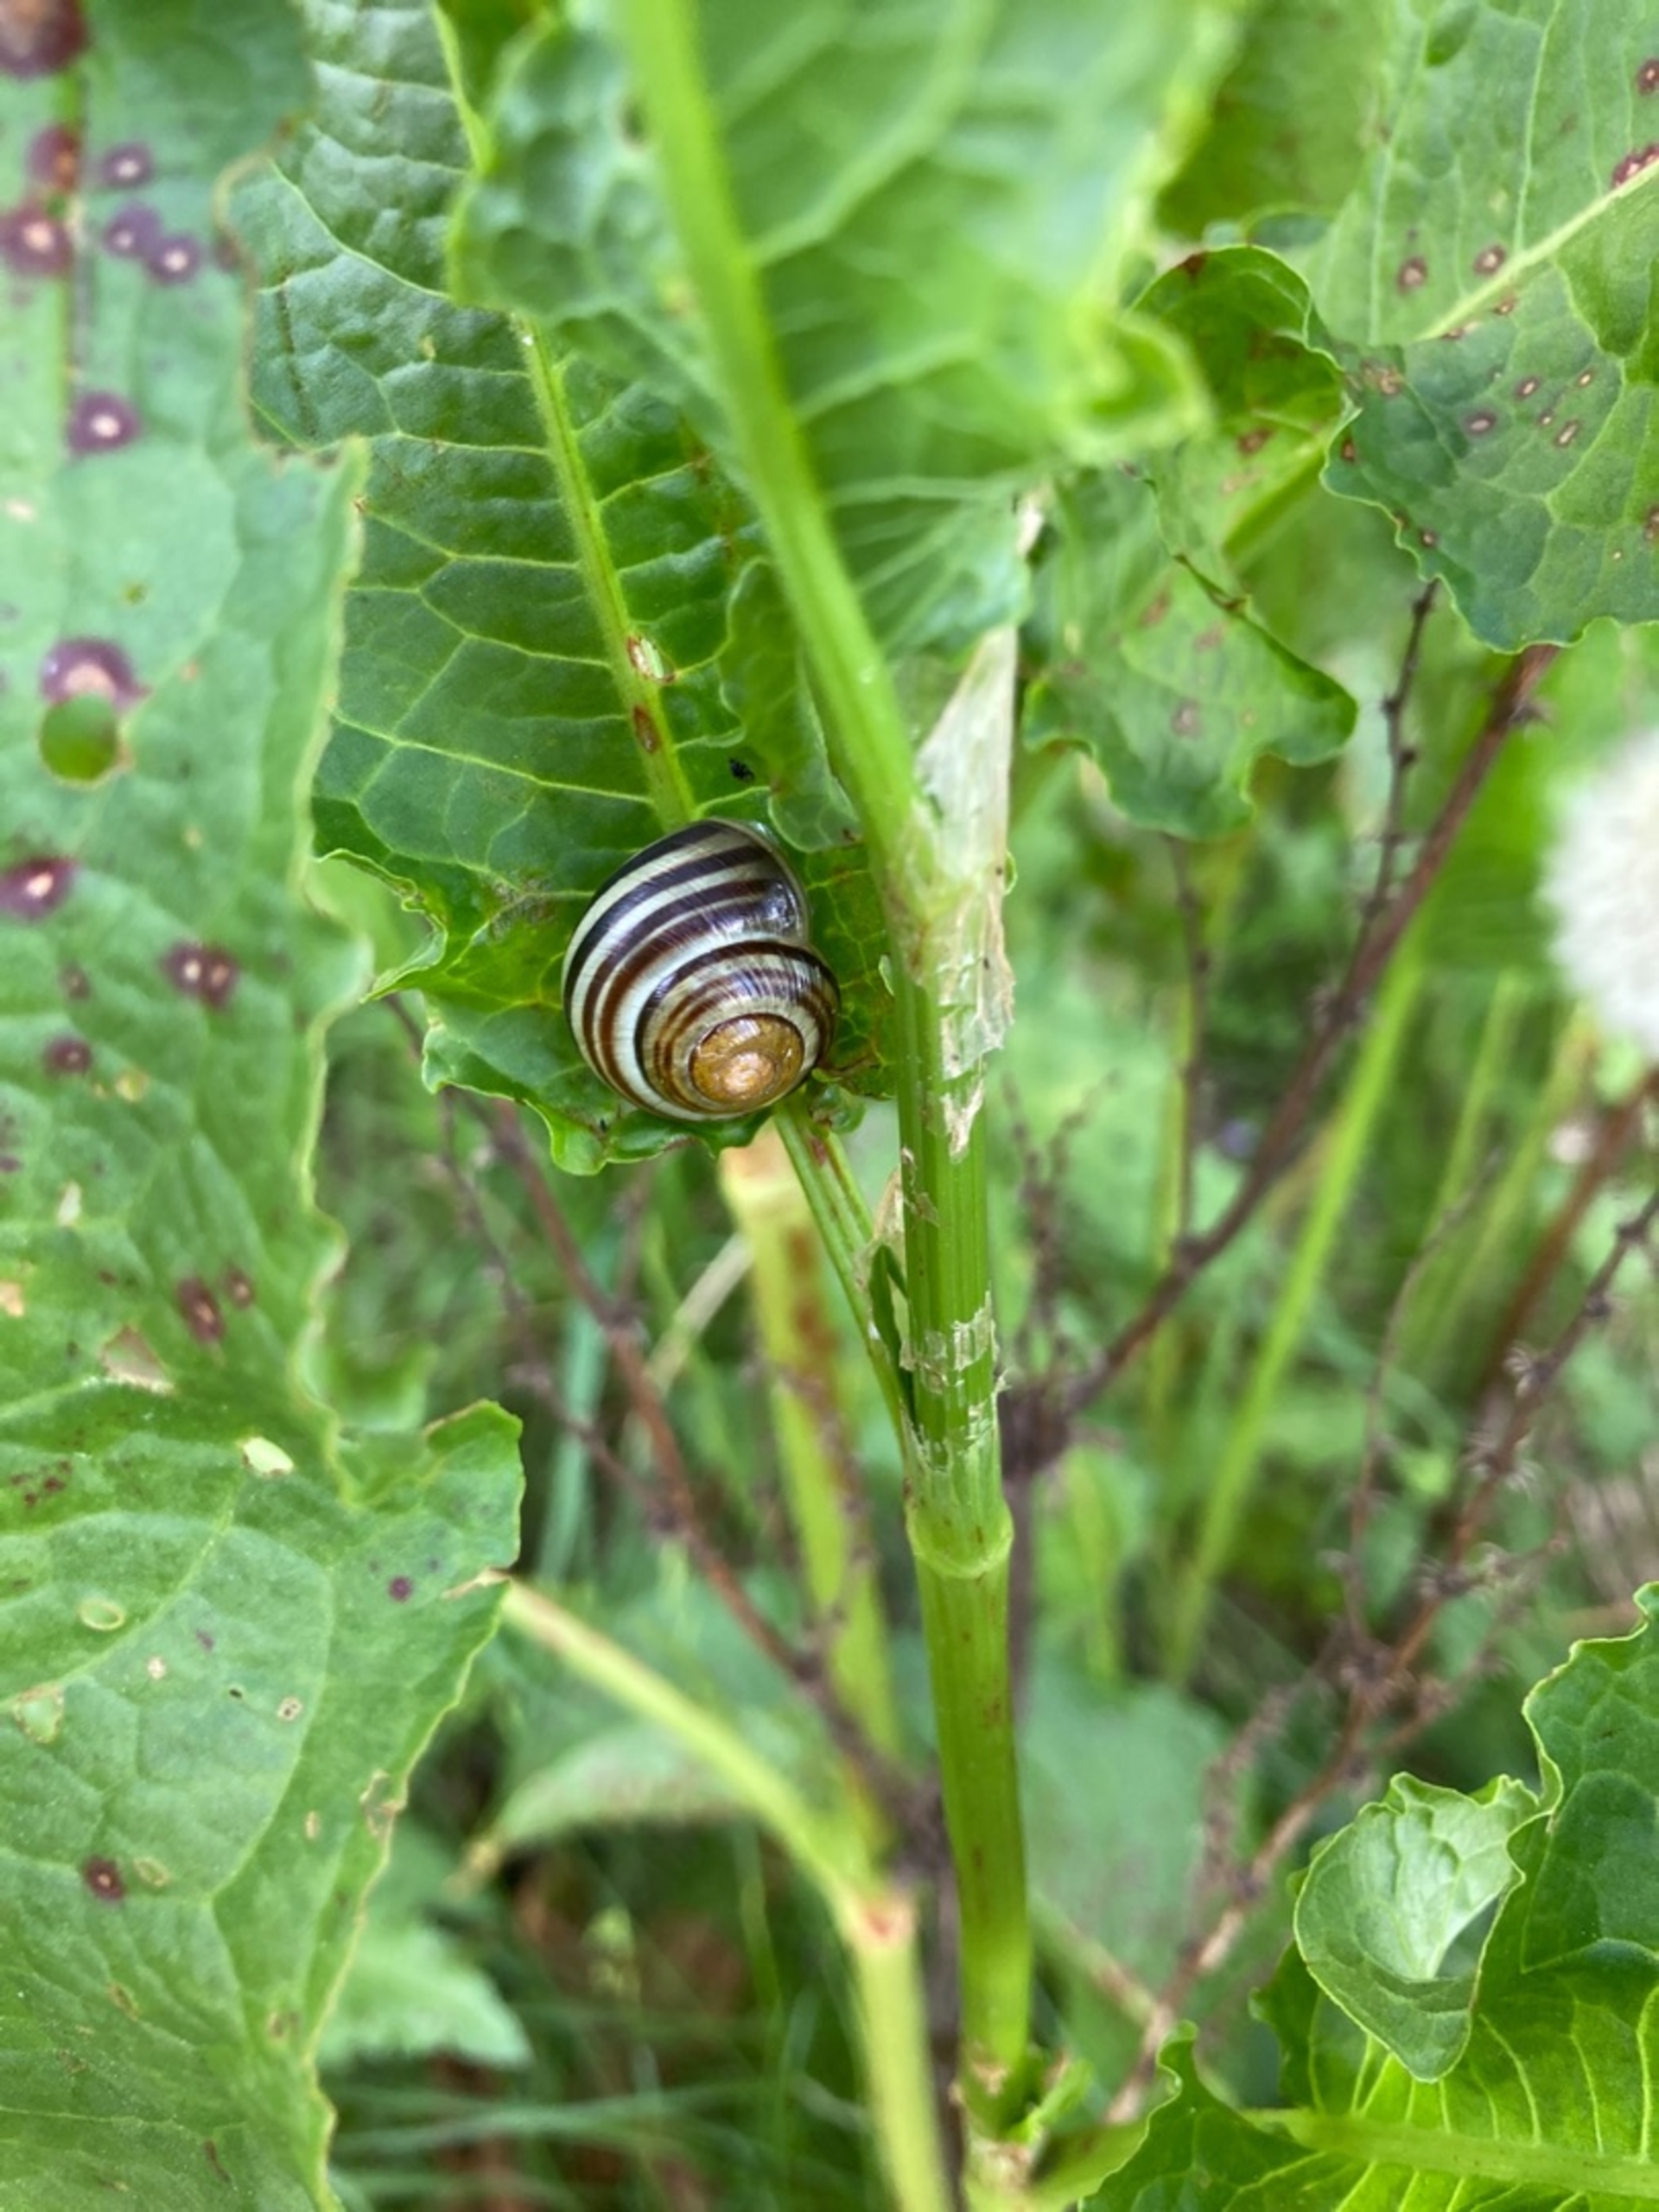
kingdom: Animalia
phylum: Mollusca
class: Gastropoda
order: Stylommatophora
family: Helicidae
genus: Cepaea
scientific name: Cepaea hortensis
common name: Havesnegl
